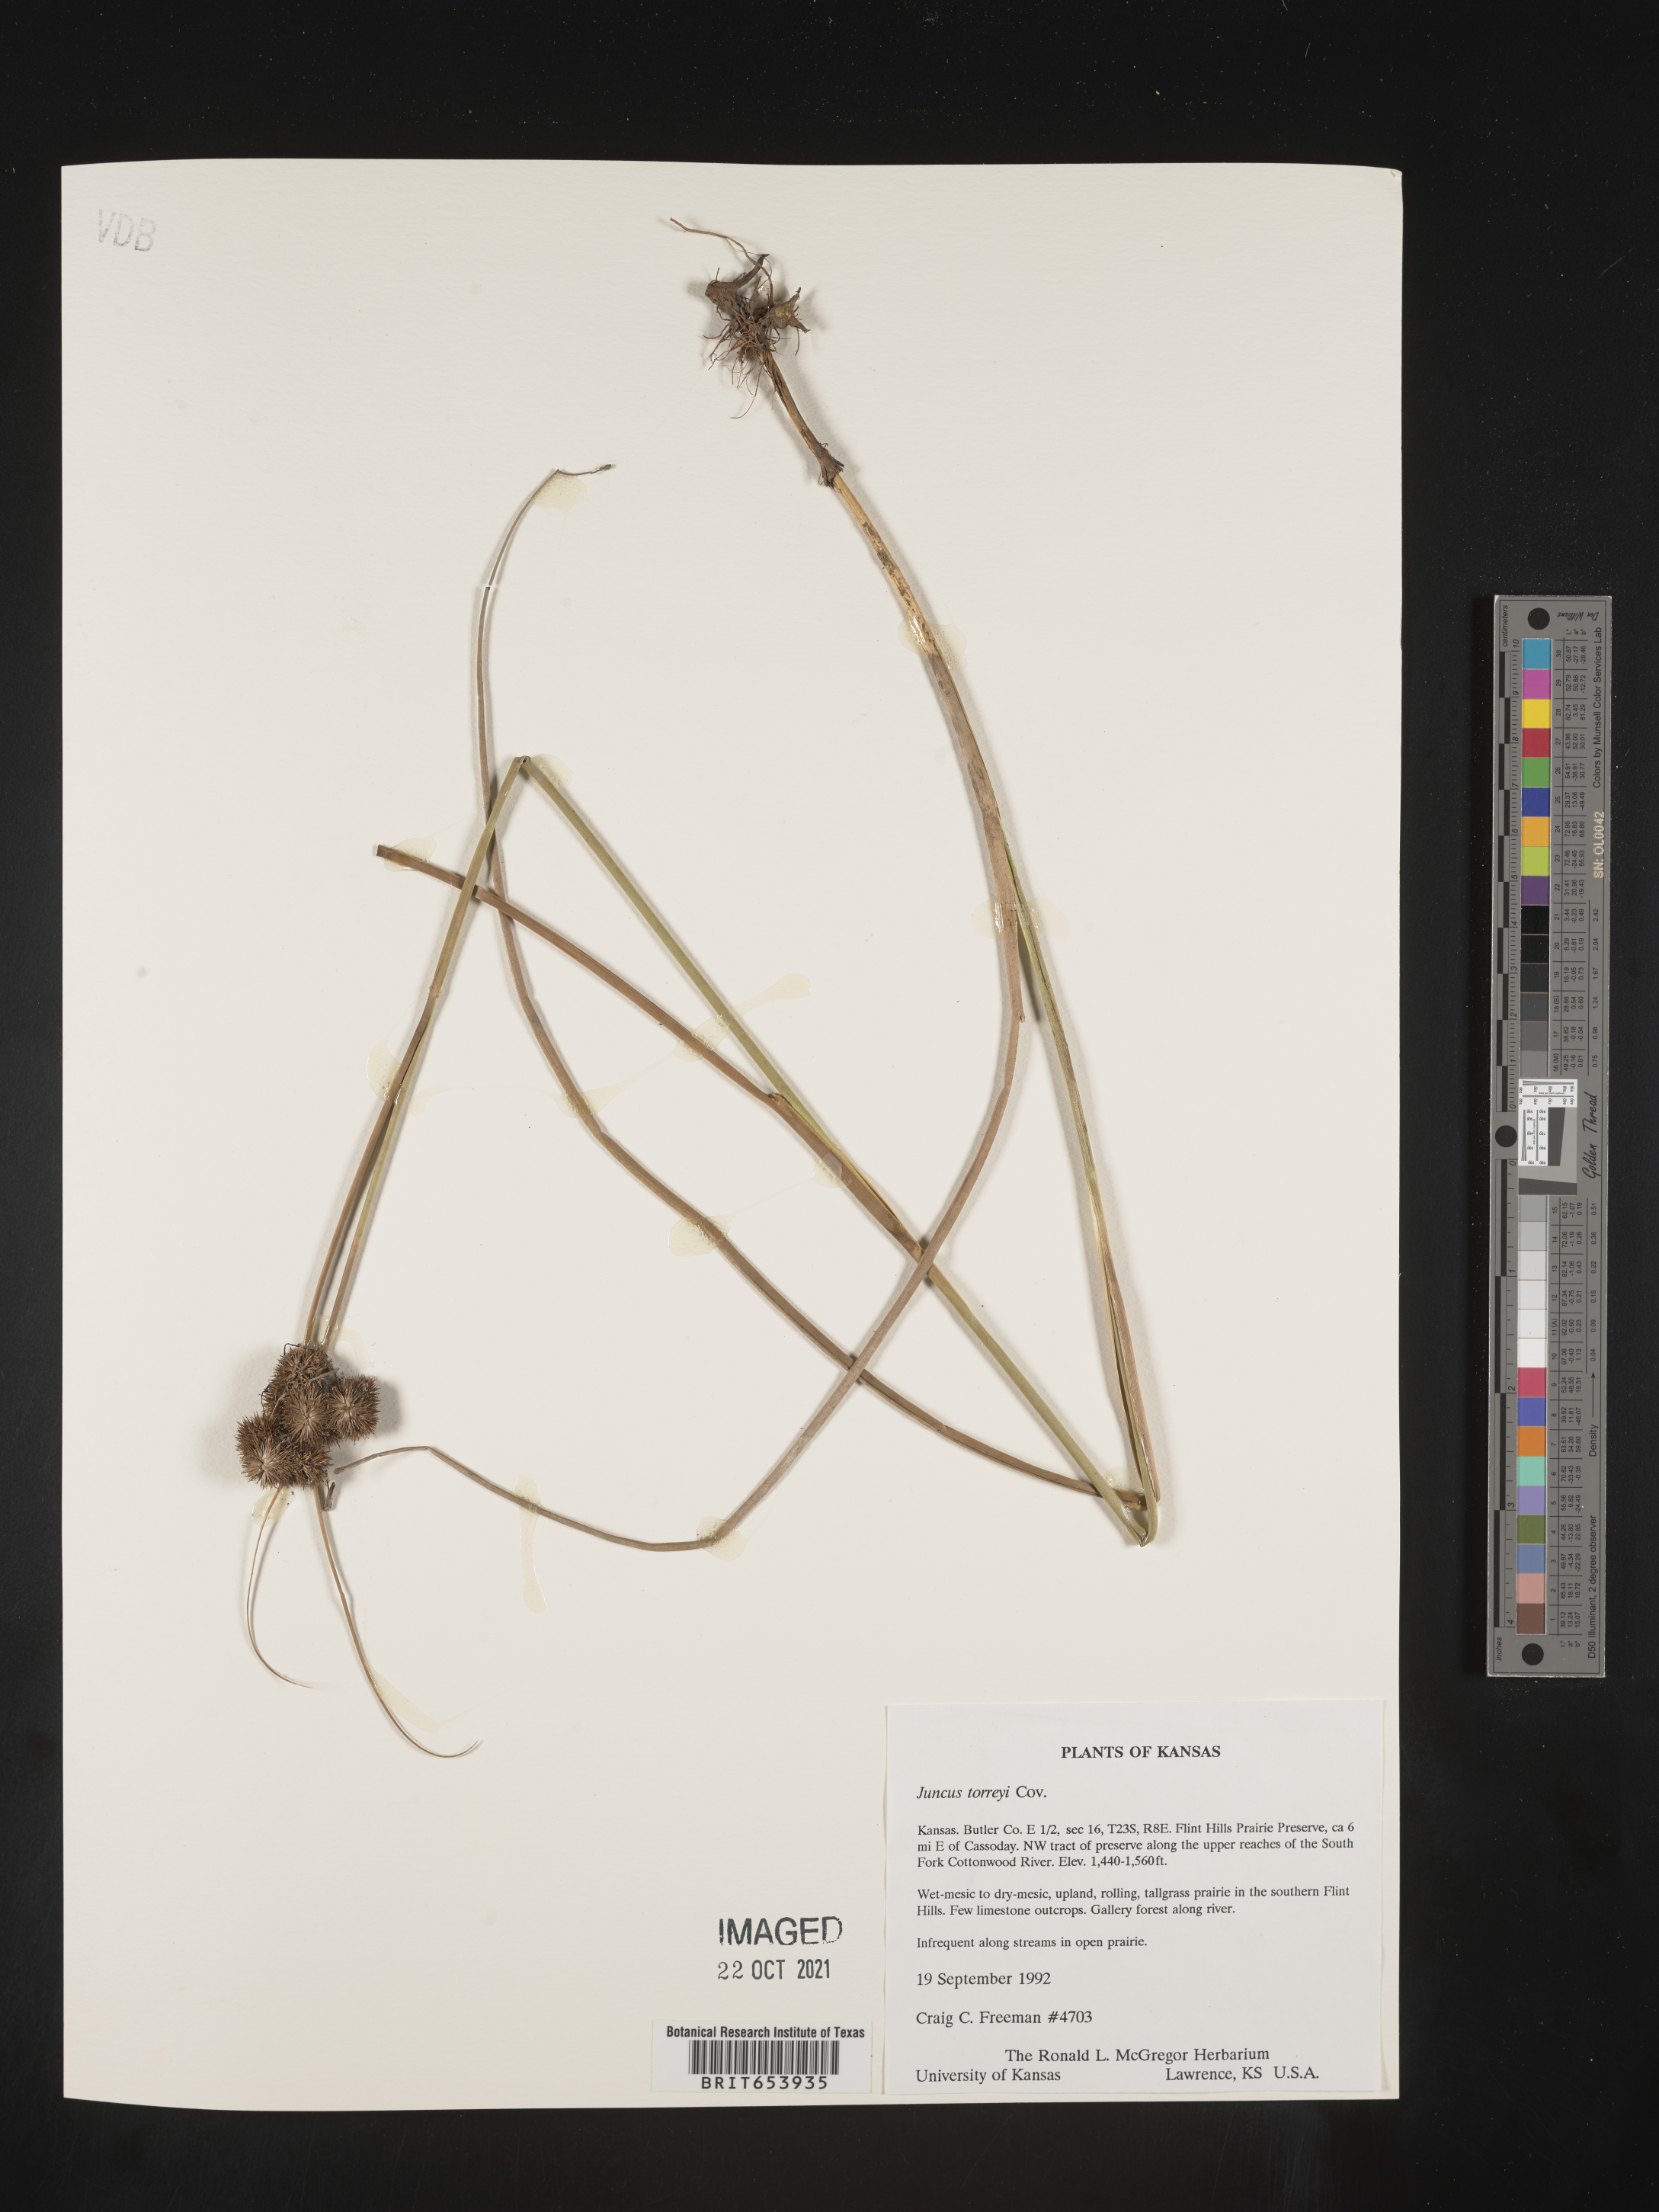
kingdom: Plantae
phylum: Tracheophyta
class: Liliopsida
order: Poales
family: Juncaceae
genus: Juncus
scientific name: Juncus torreyi
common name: Torrey's rush
